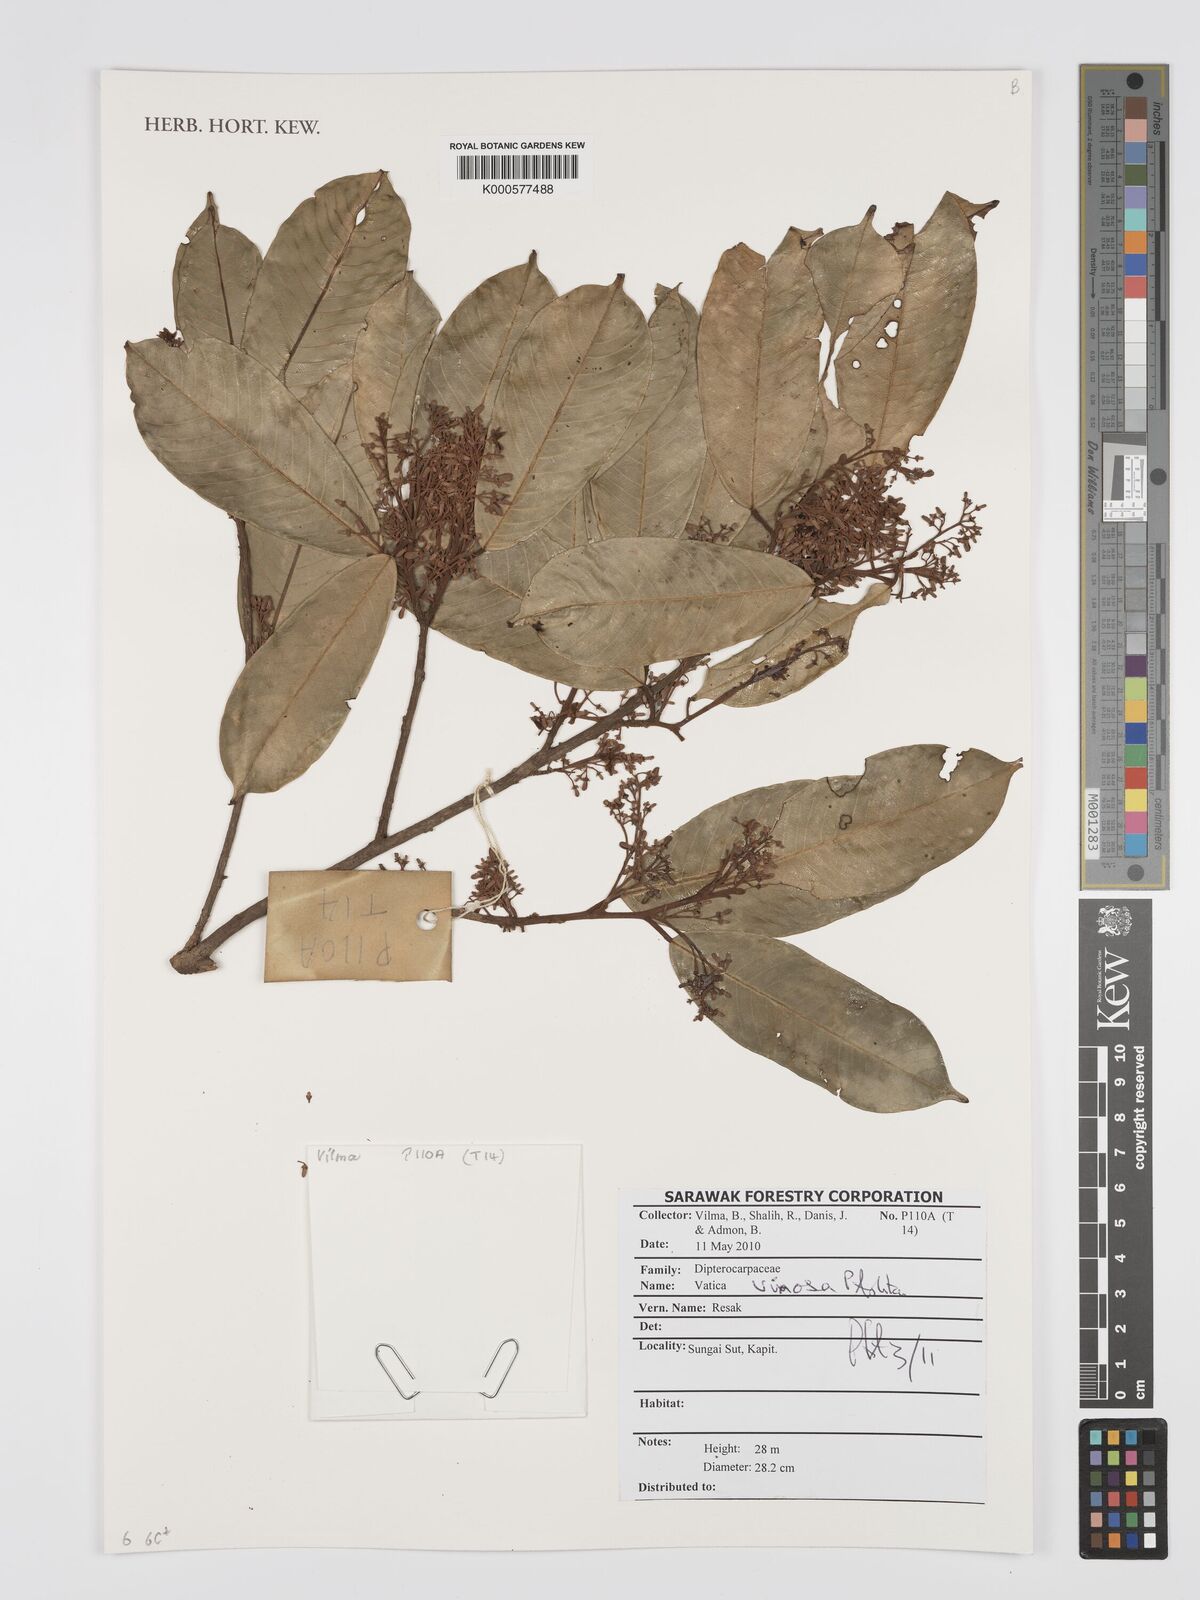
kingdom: Plantae
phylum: Tracheophyta
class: Magnoliopsida
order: Malvales
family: Dipterocarpaceae
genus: Vatica
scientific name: Vatica vinosa
